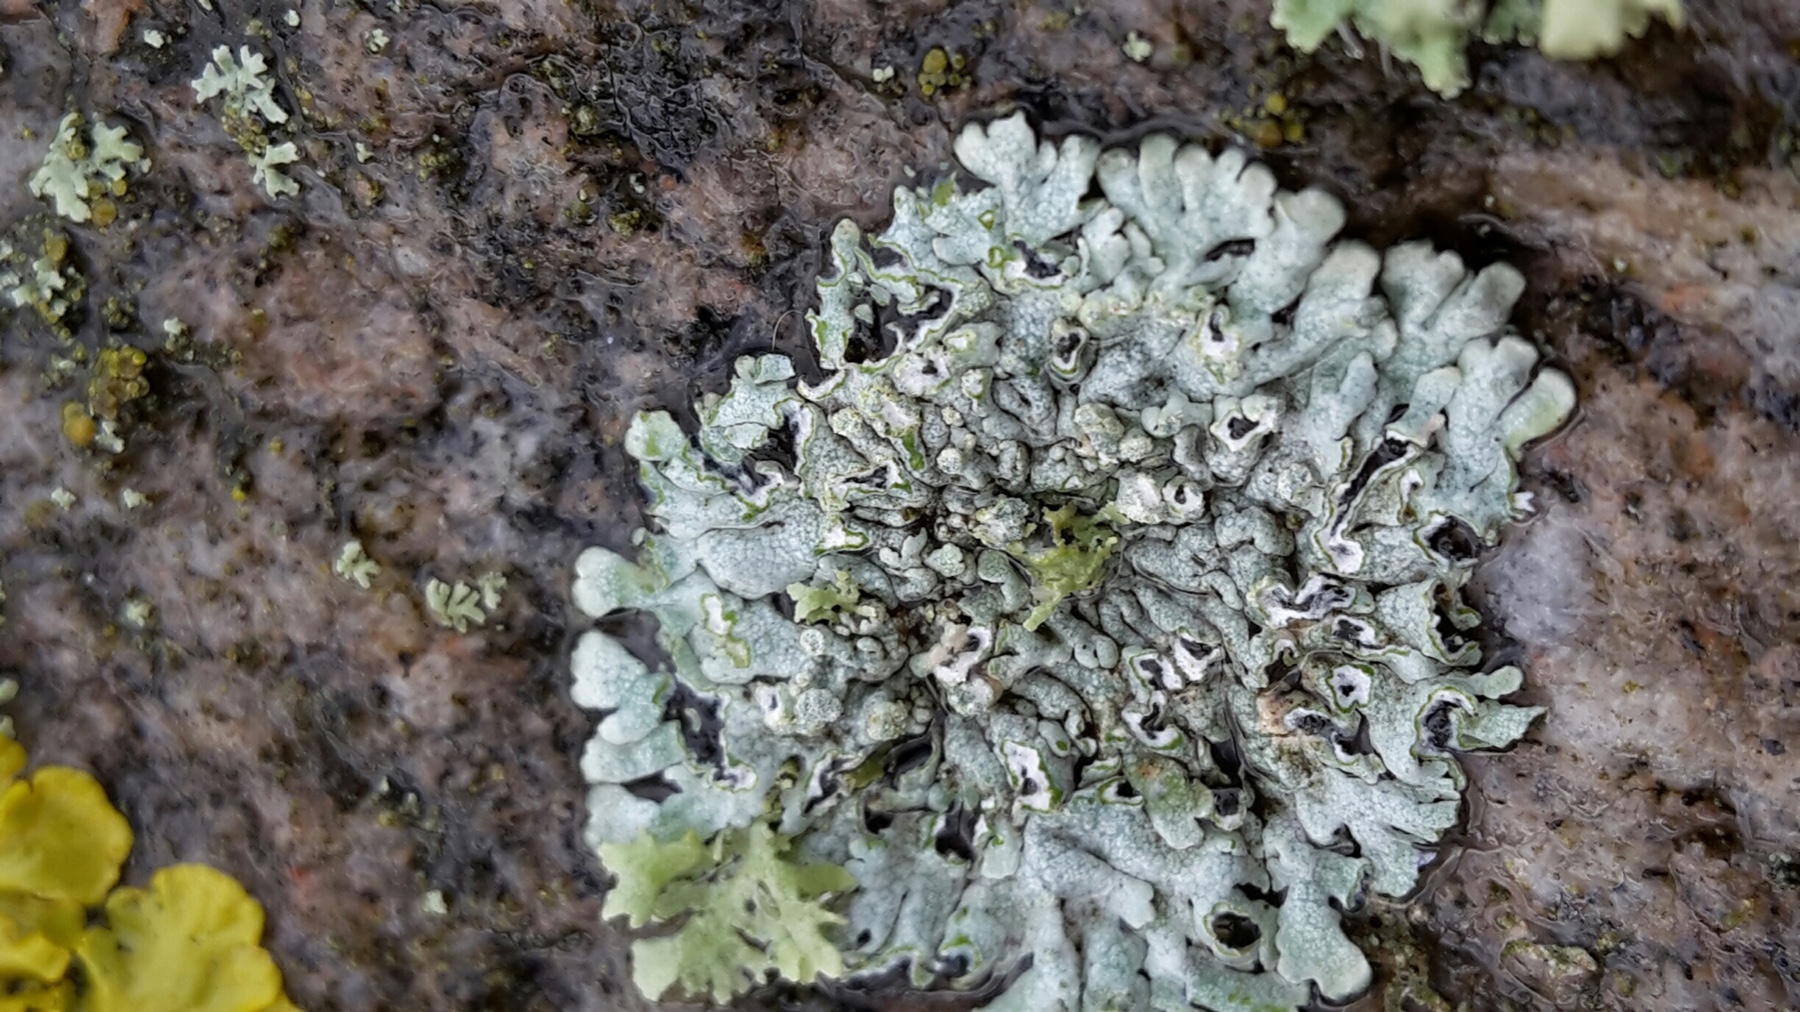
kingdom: Fungi
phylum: Ascomycota
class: Lecanoromycetes
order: Caliciales
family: Physciaceae
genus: Physcia
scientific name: Physcia caesia
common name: blågrå rosetlav
